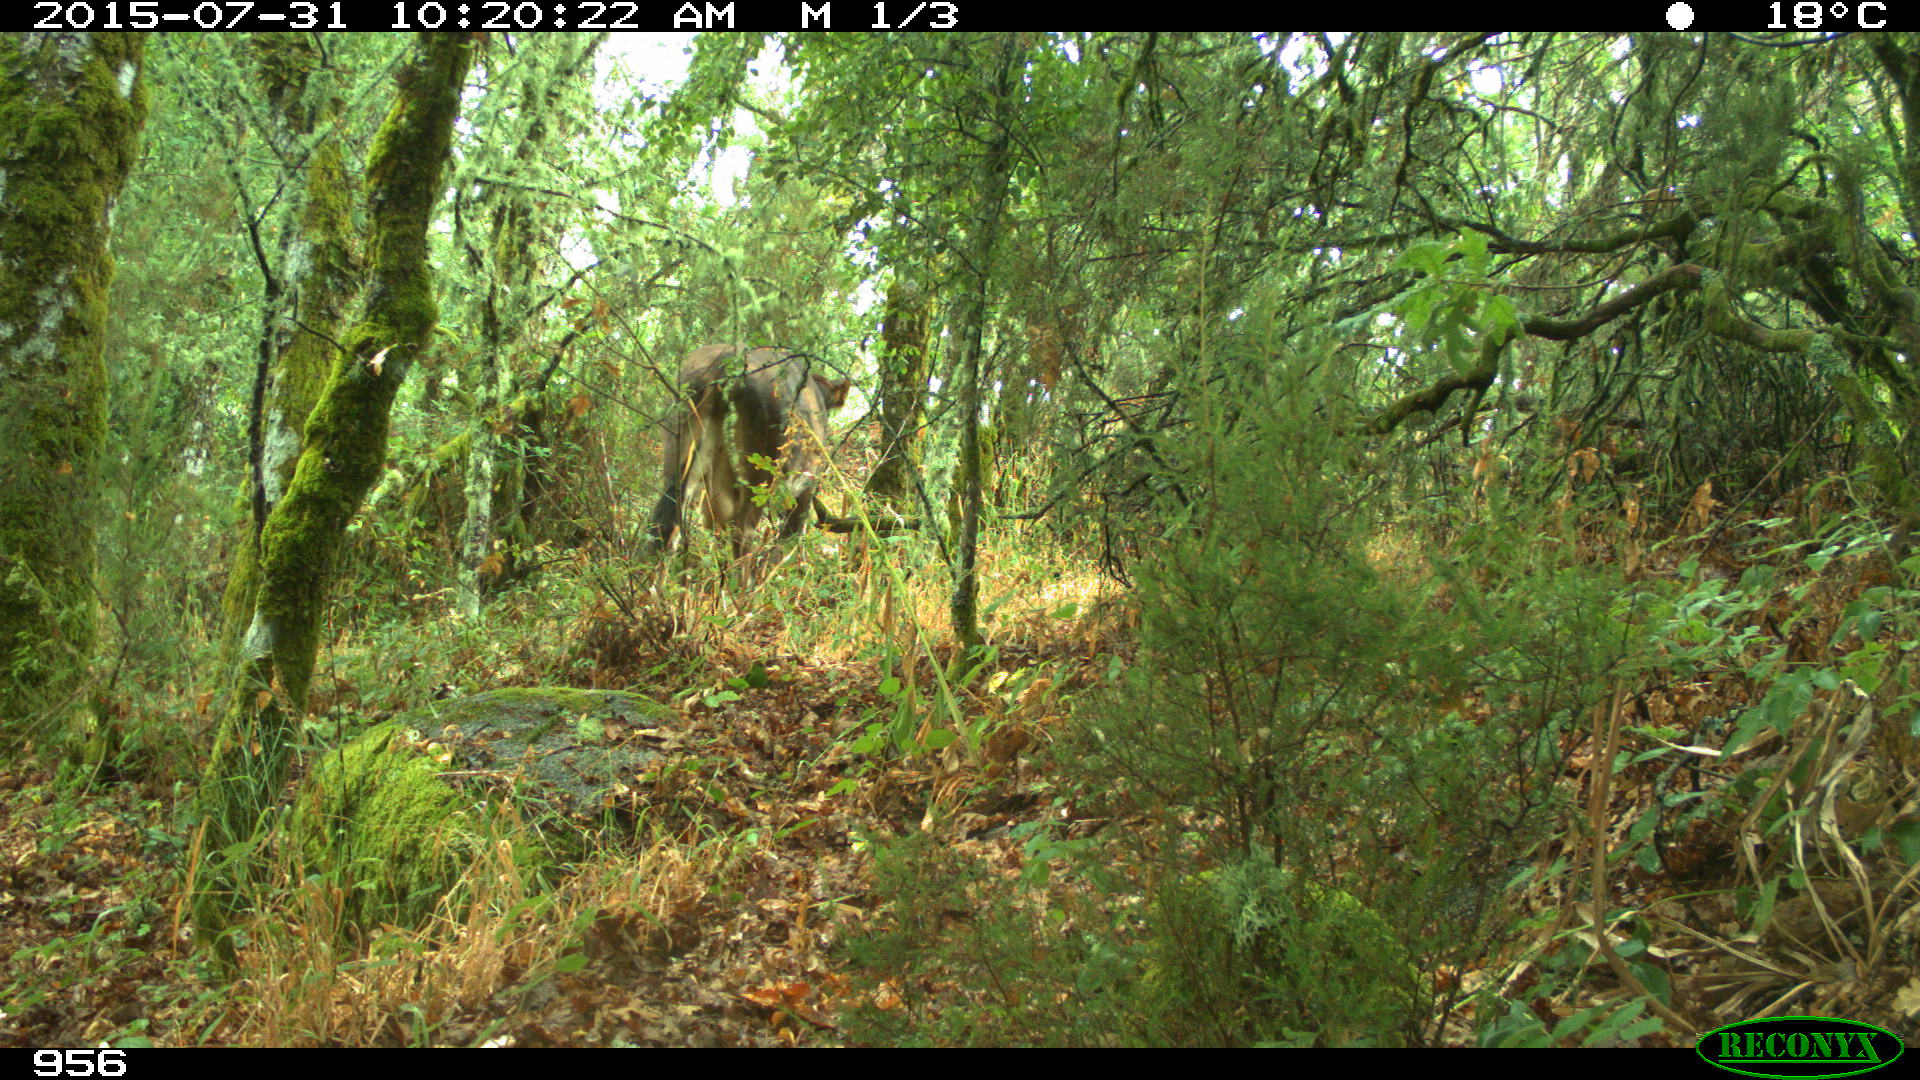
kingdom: Animalia
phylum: Chordata
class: Mammalia
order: Artiodactyla
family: Bovidae
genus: Bos
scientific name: Bos taurus
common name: Domesticated cattle
